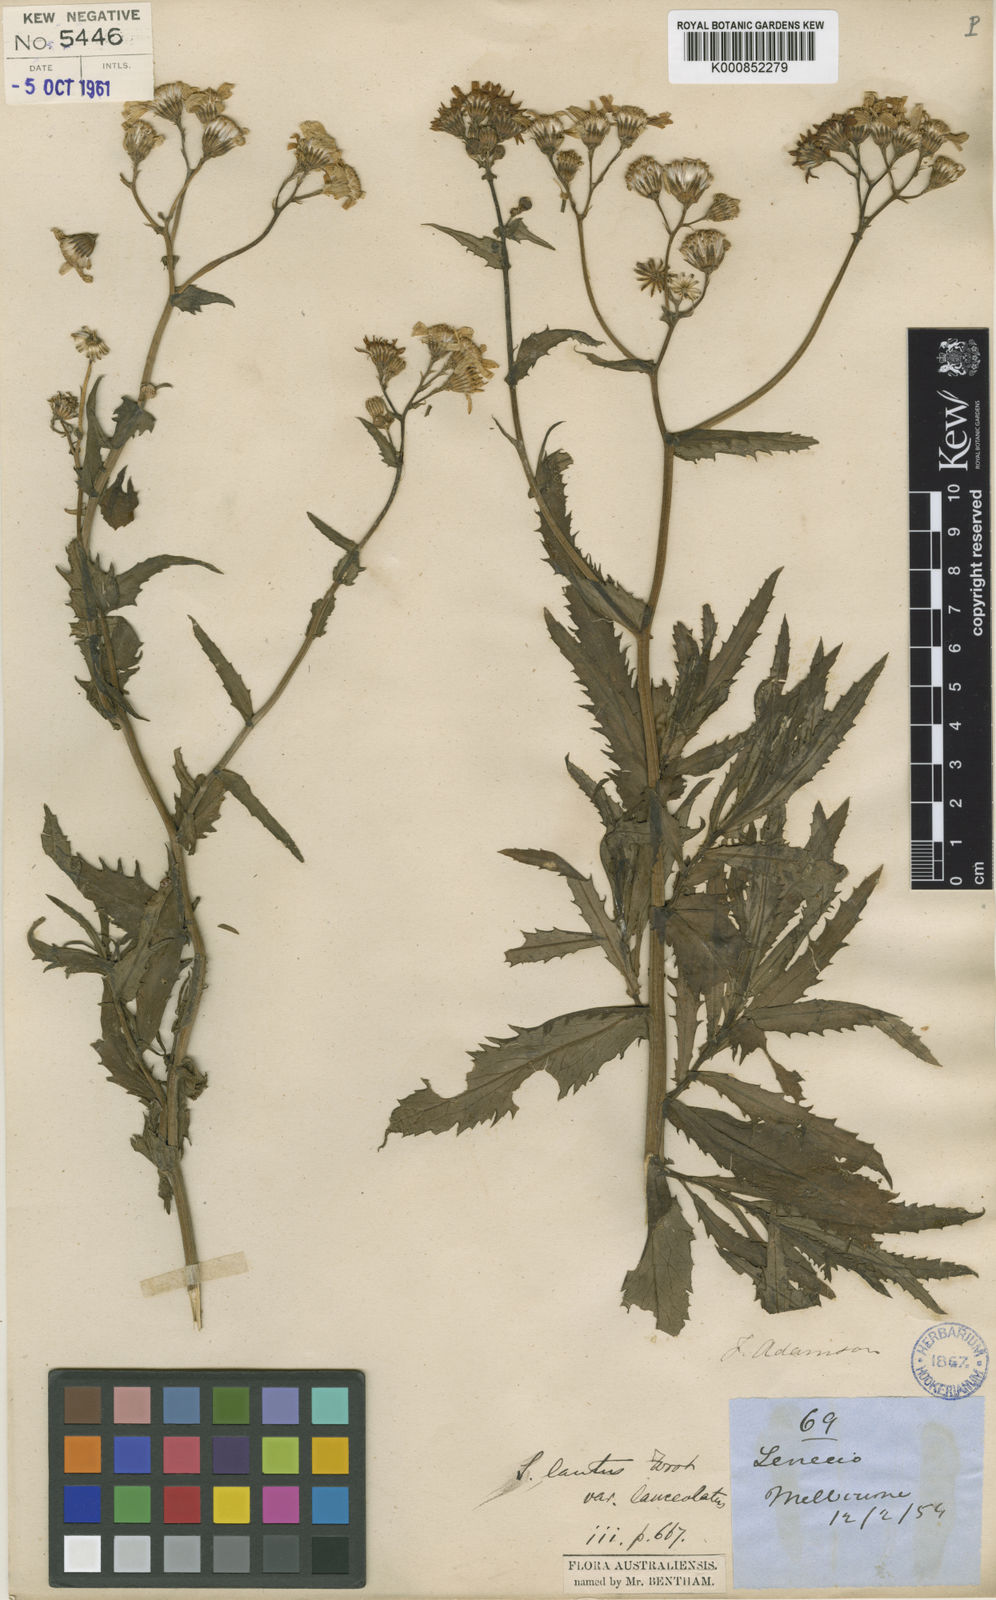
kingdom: Plantae
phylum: Tracheophyta
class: Magnoliopsida
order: Asterales
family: Asteraceae
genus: Senecio
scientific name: Senecio pinnatifolius
